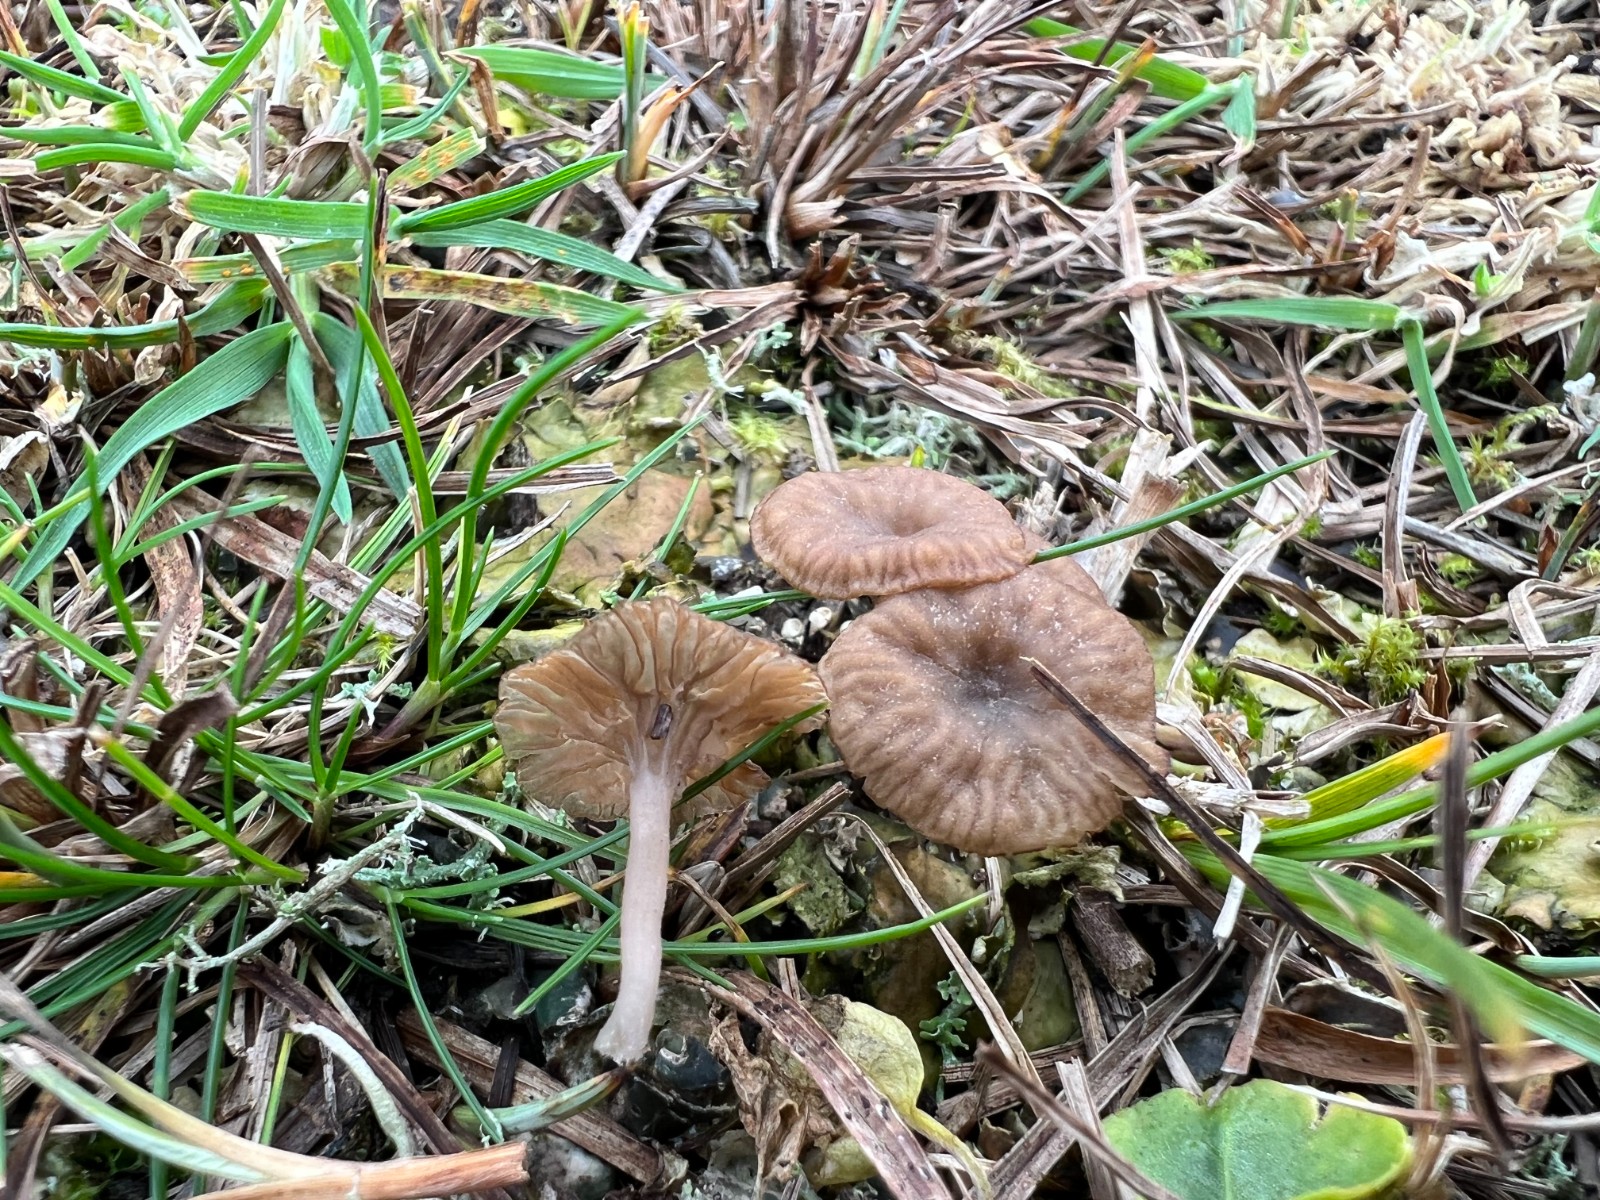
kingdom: Fungi
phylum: Basidiomycota
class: Agaricomycetes
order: Agaricales
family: Hygrophoraceae
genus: Arrhenia
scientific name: Arrhenia peltigerina
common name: skjoldlav-fontænehat
